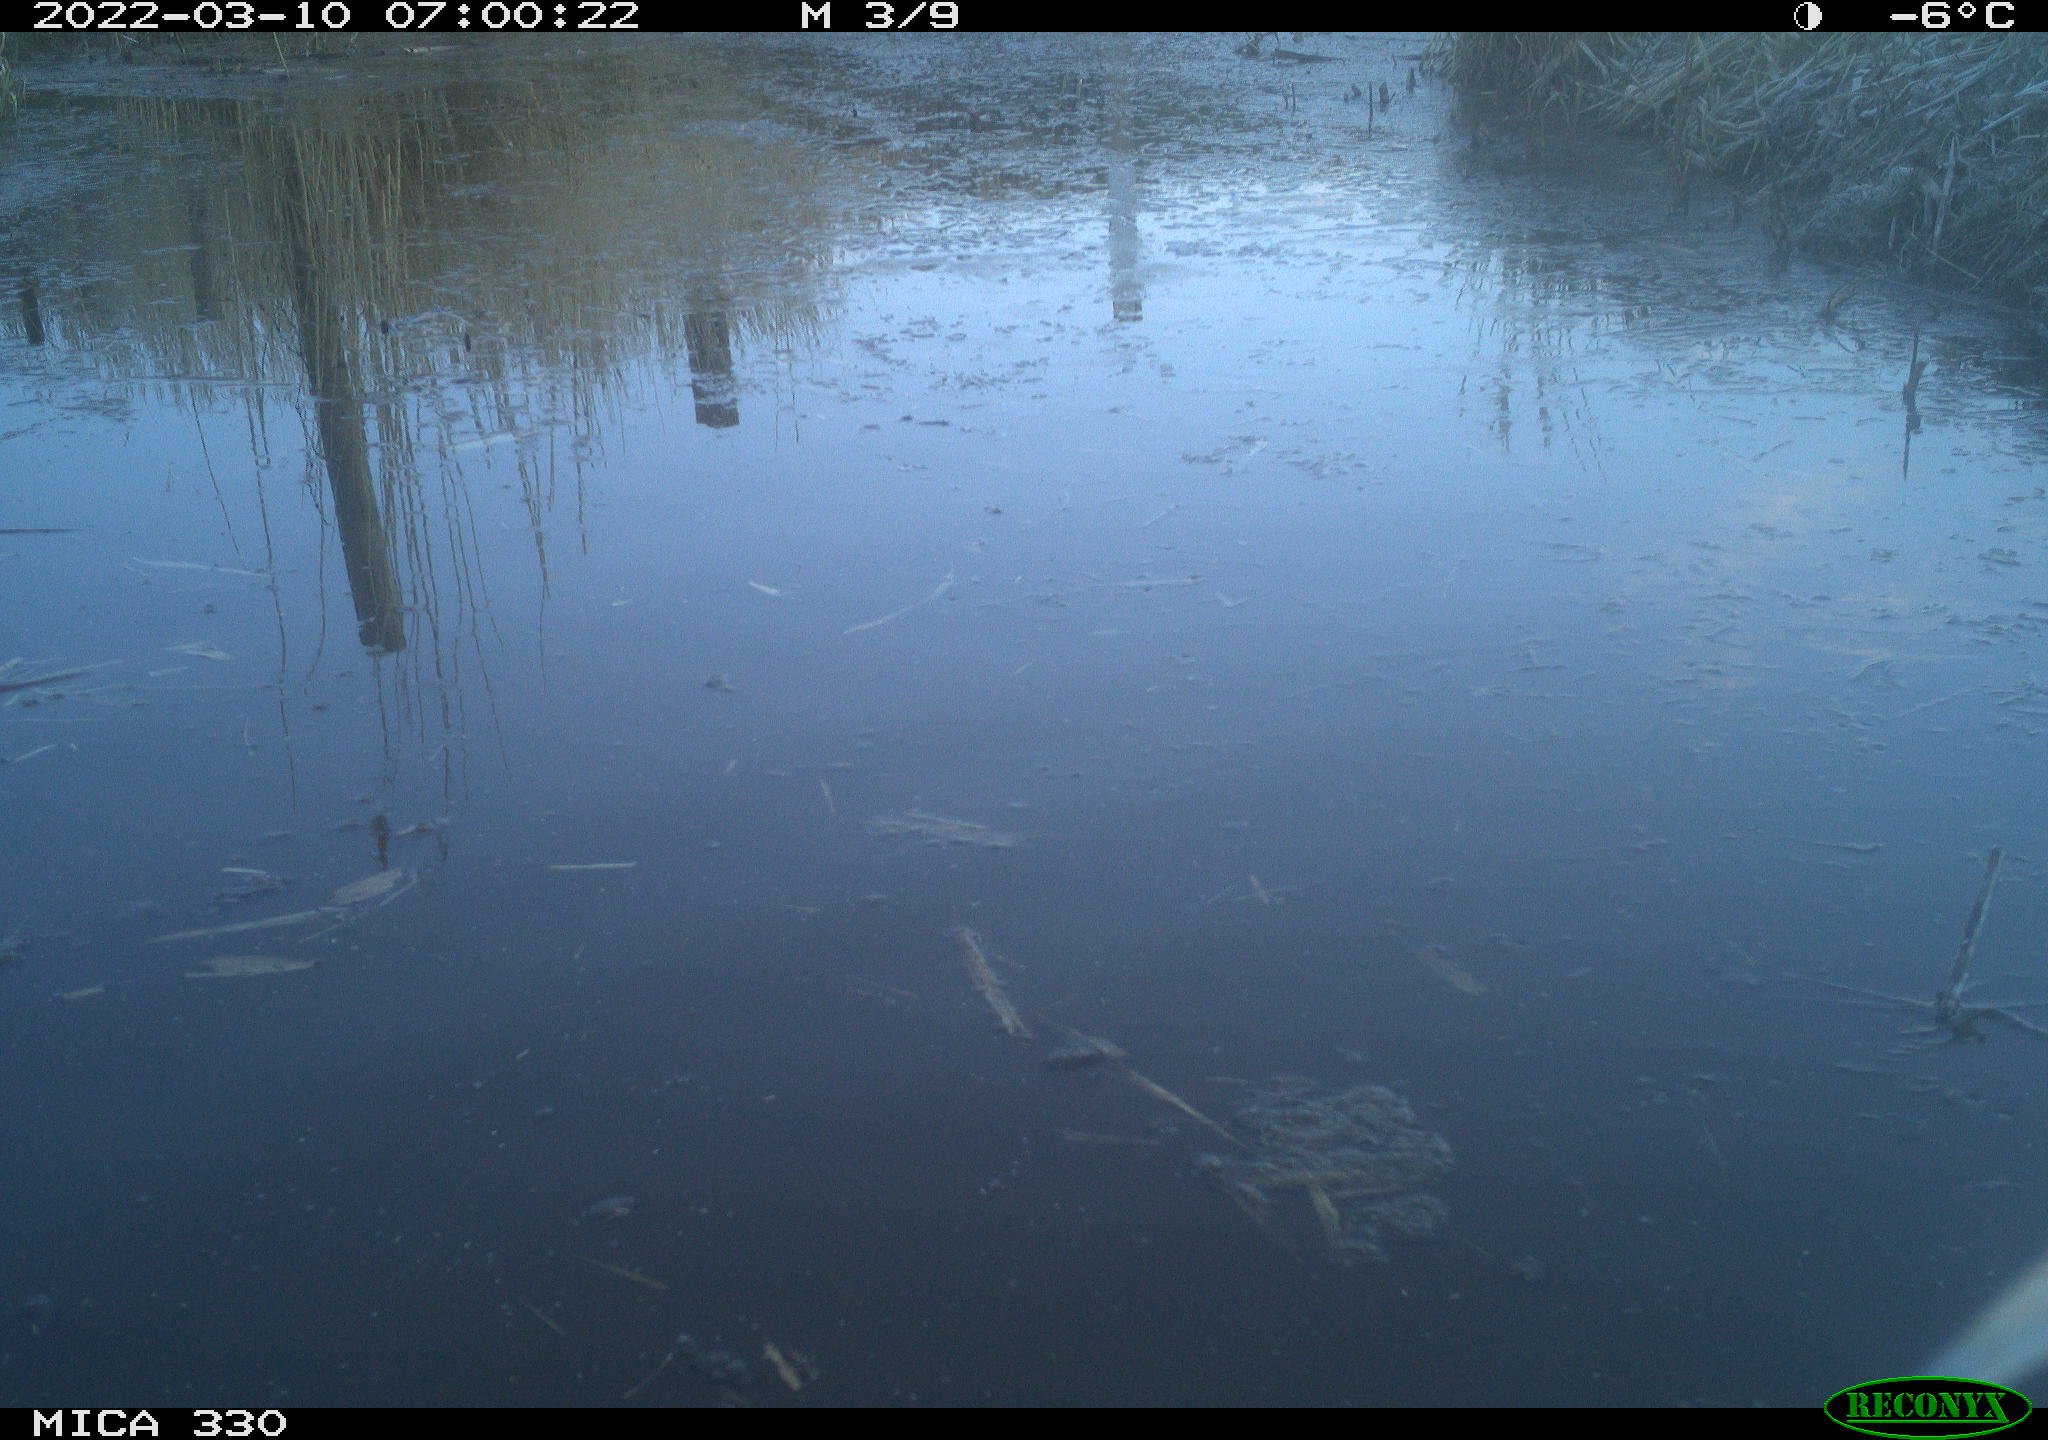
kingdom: Animalia
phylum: Chordata
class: Aves
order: Pelecaniformes
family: Ardeidae
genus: Ardea
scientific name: Ardea alba
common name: Great egret
